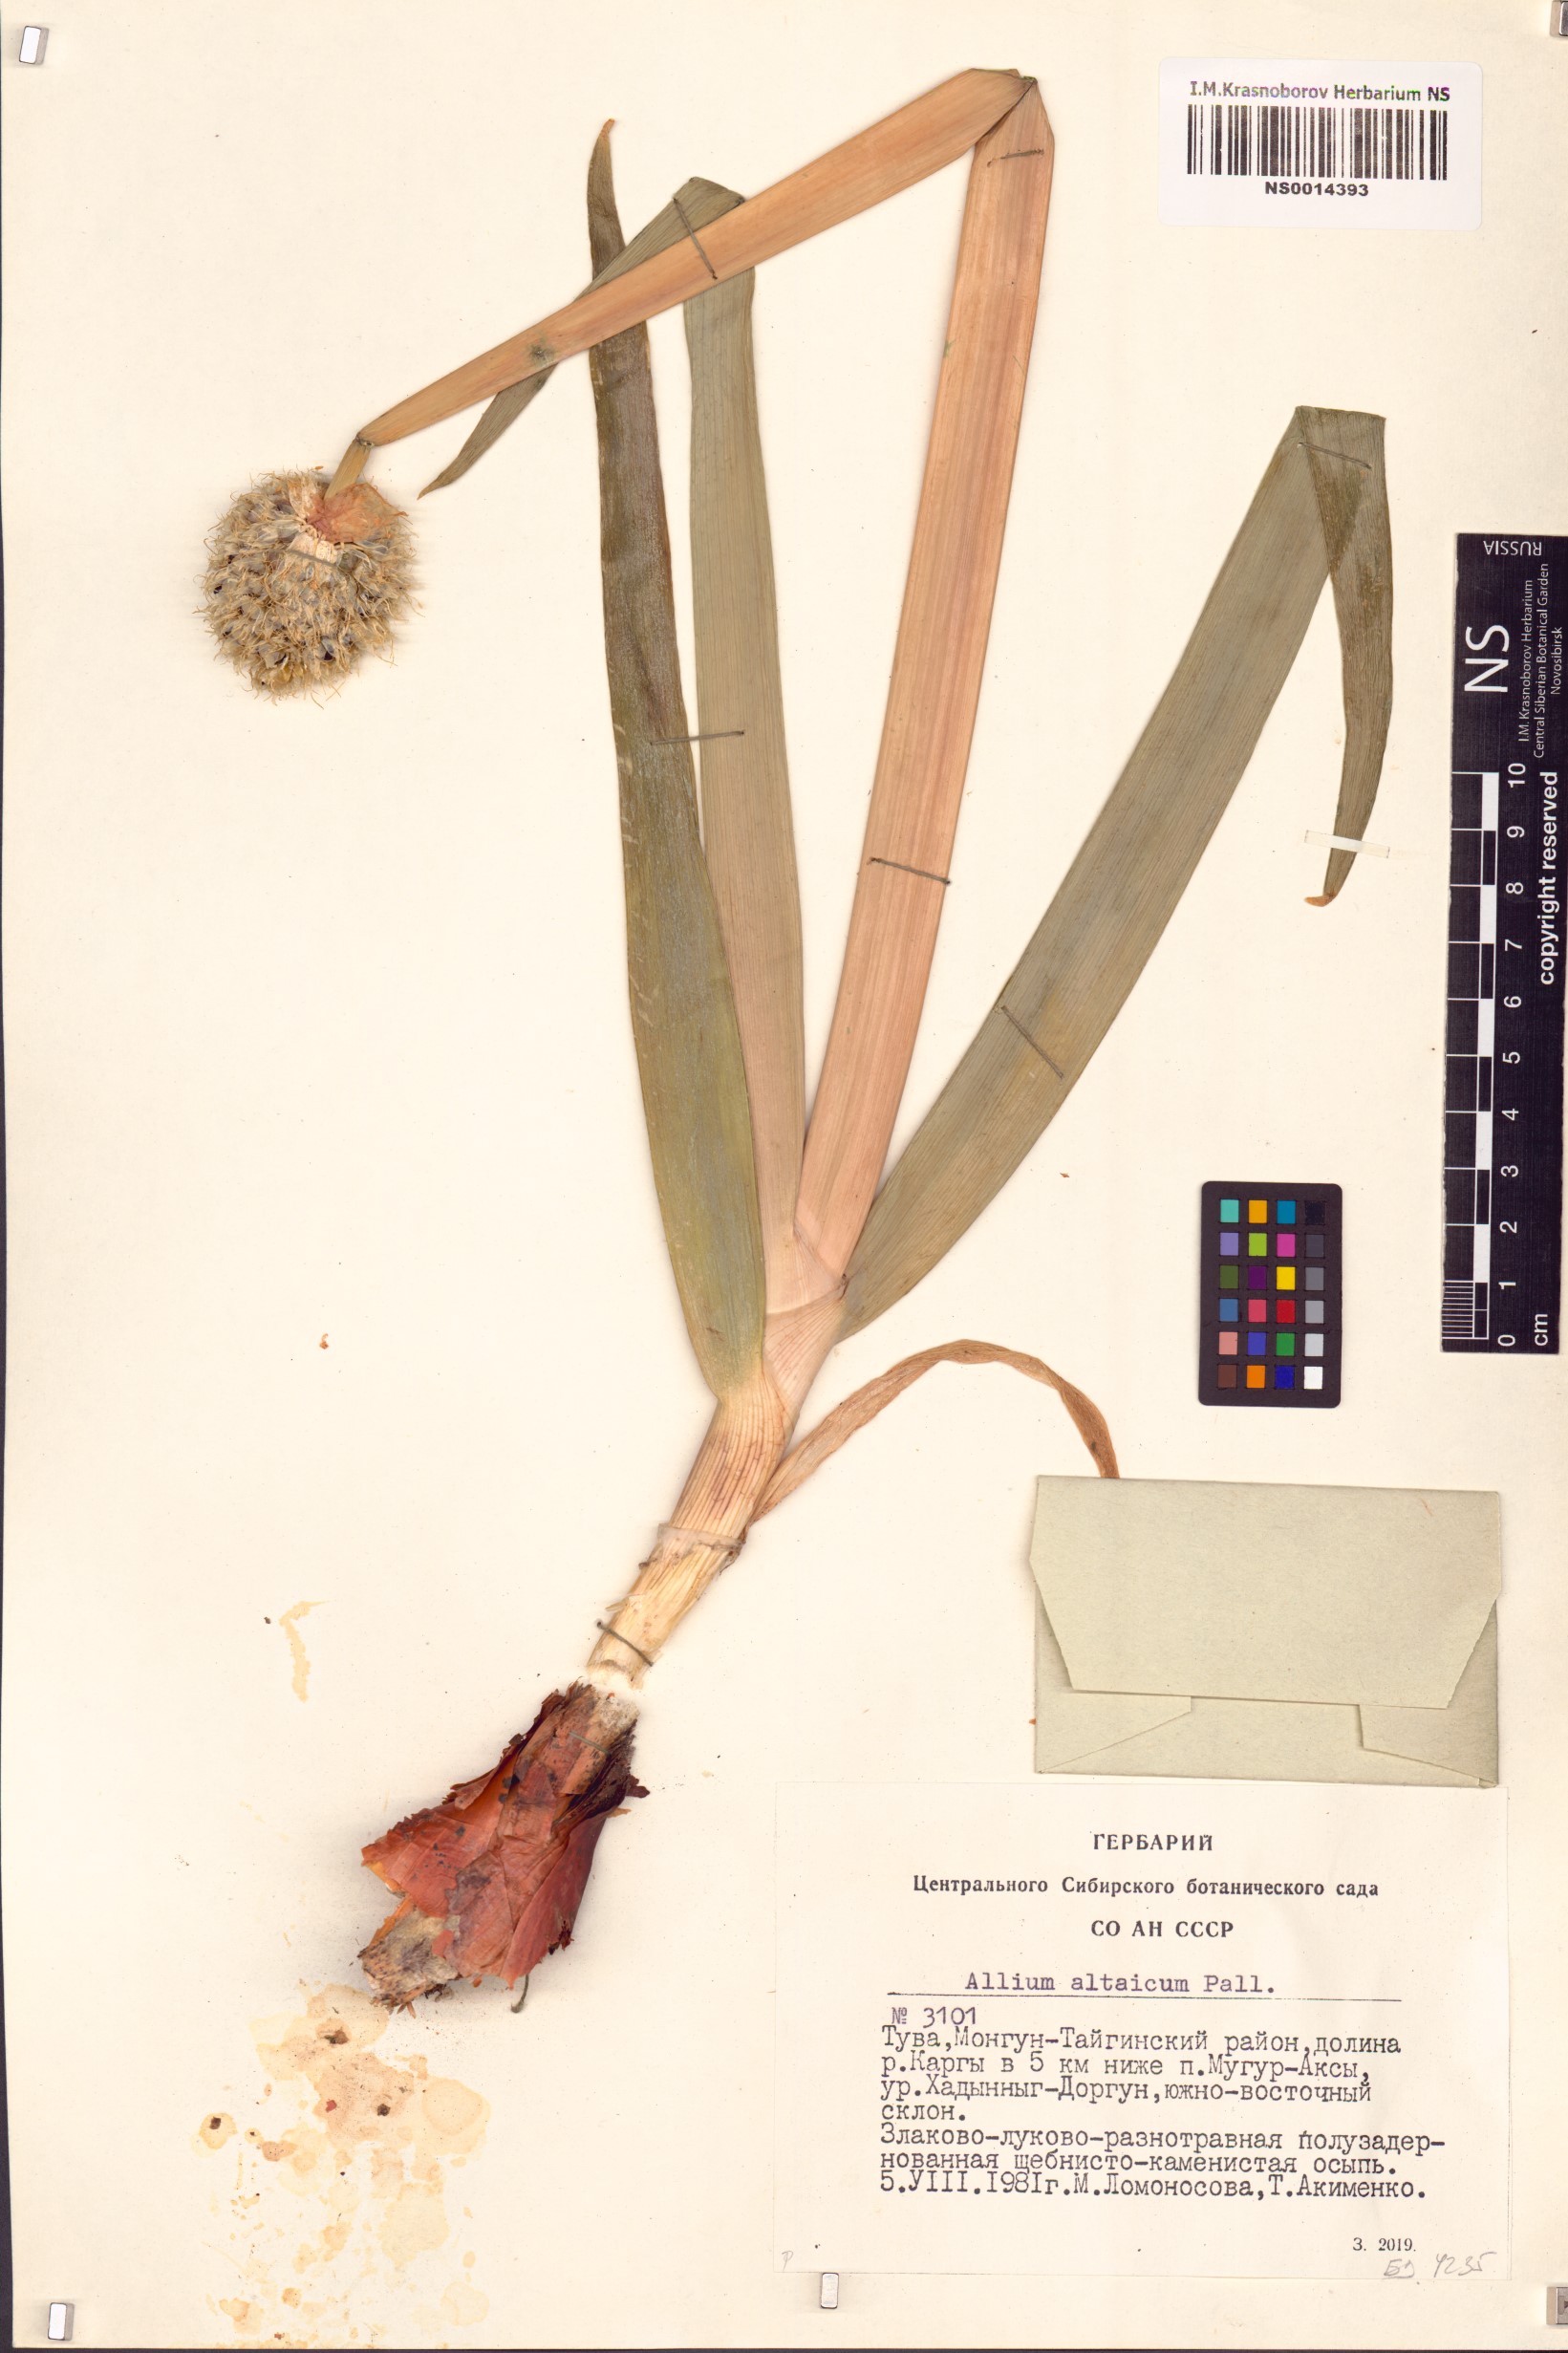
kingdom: Plantae
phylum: Tracheophyta
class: Liliopsida
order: Asparagales
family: Amaryllidaceae
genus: Allium
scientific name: Allium altaicum
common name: Altai onion
